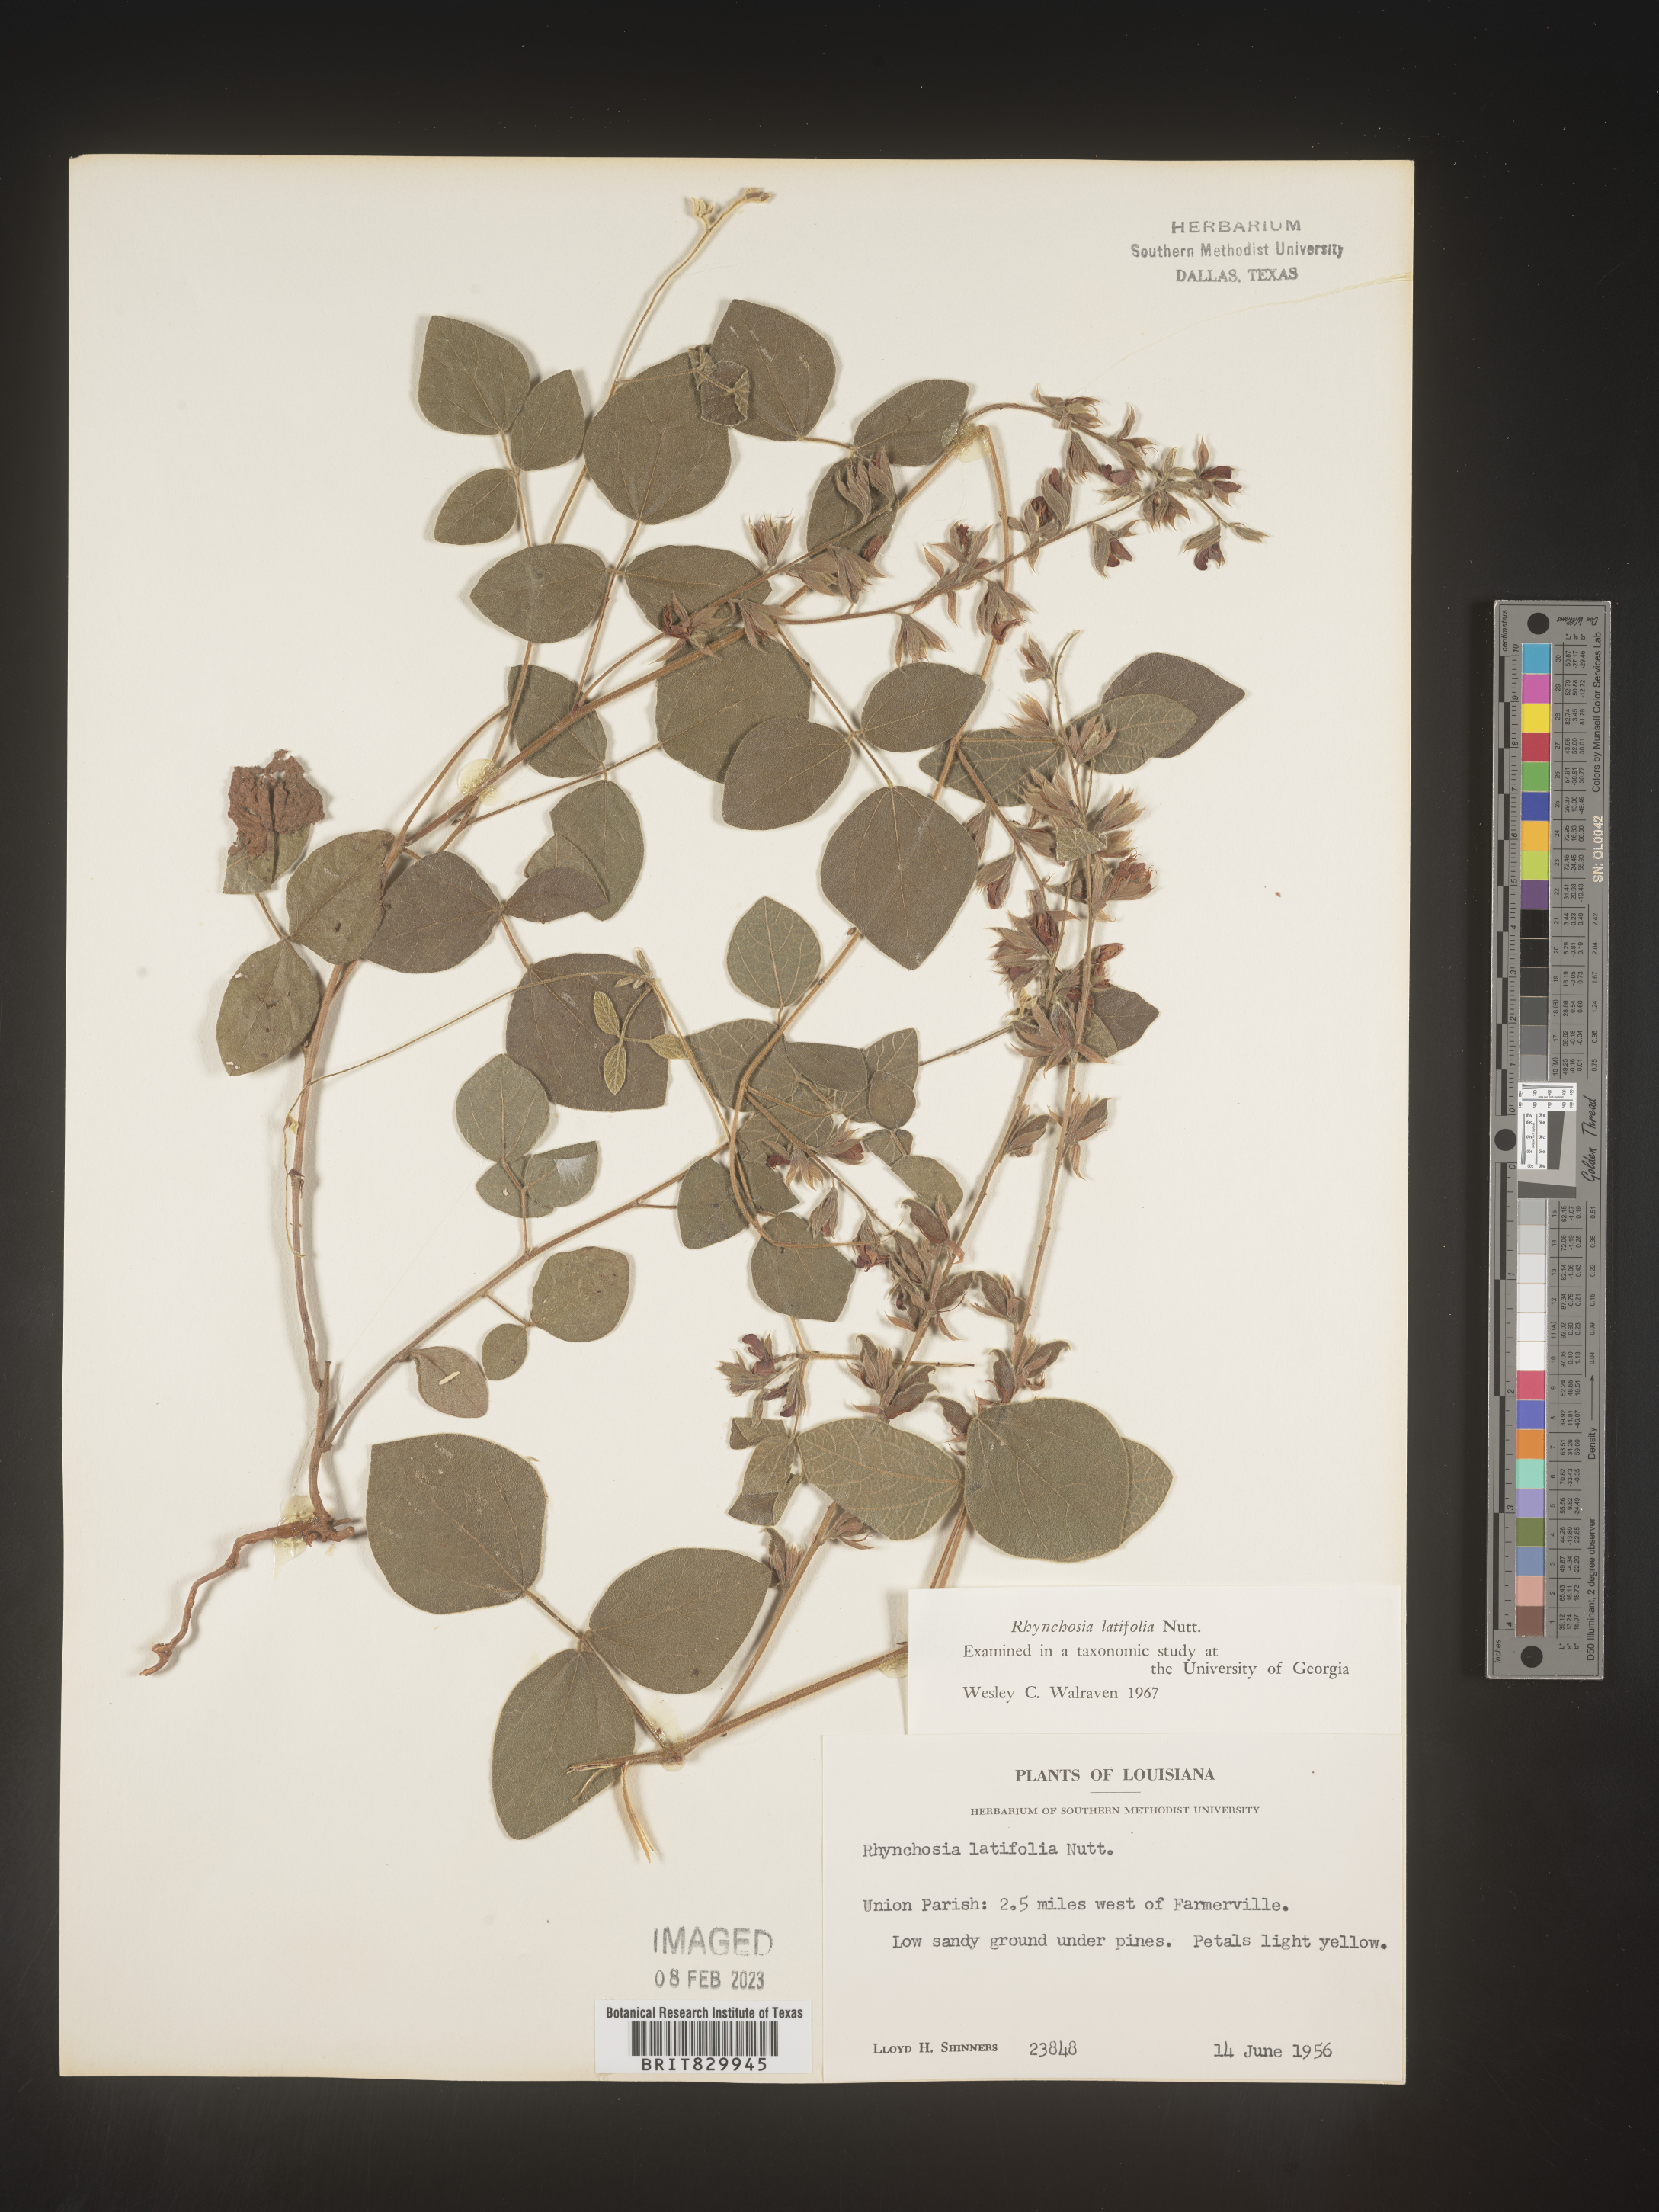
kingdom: Plantae
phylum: Tracheophyta
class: Magnoliopsida
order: Fabales
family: Fabaceae
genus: Rhynchosia
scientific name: Rhynchosia latifolia
